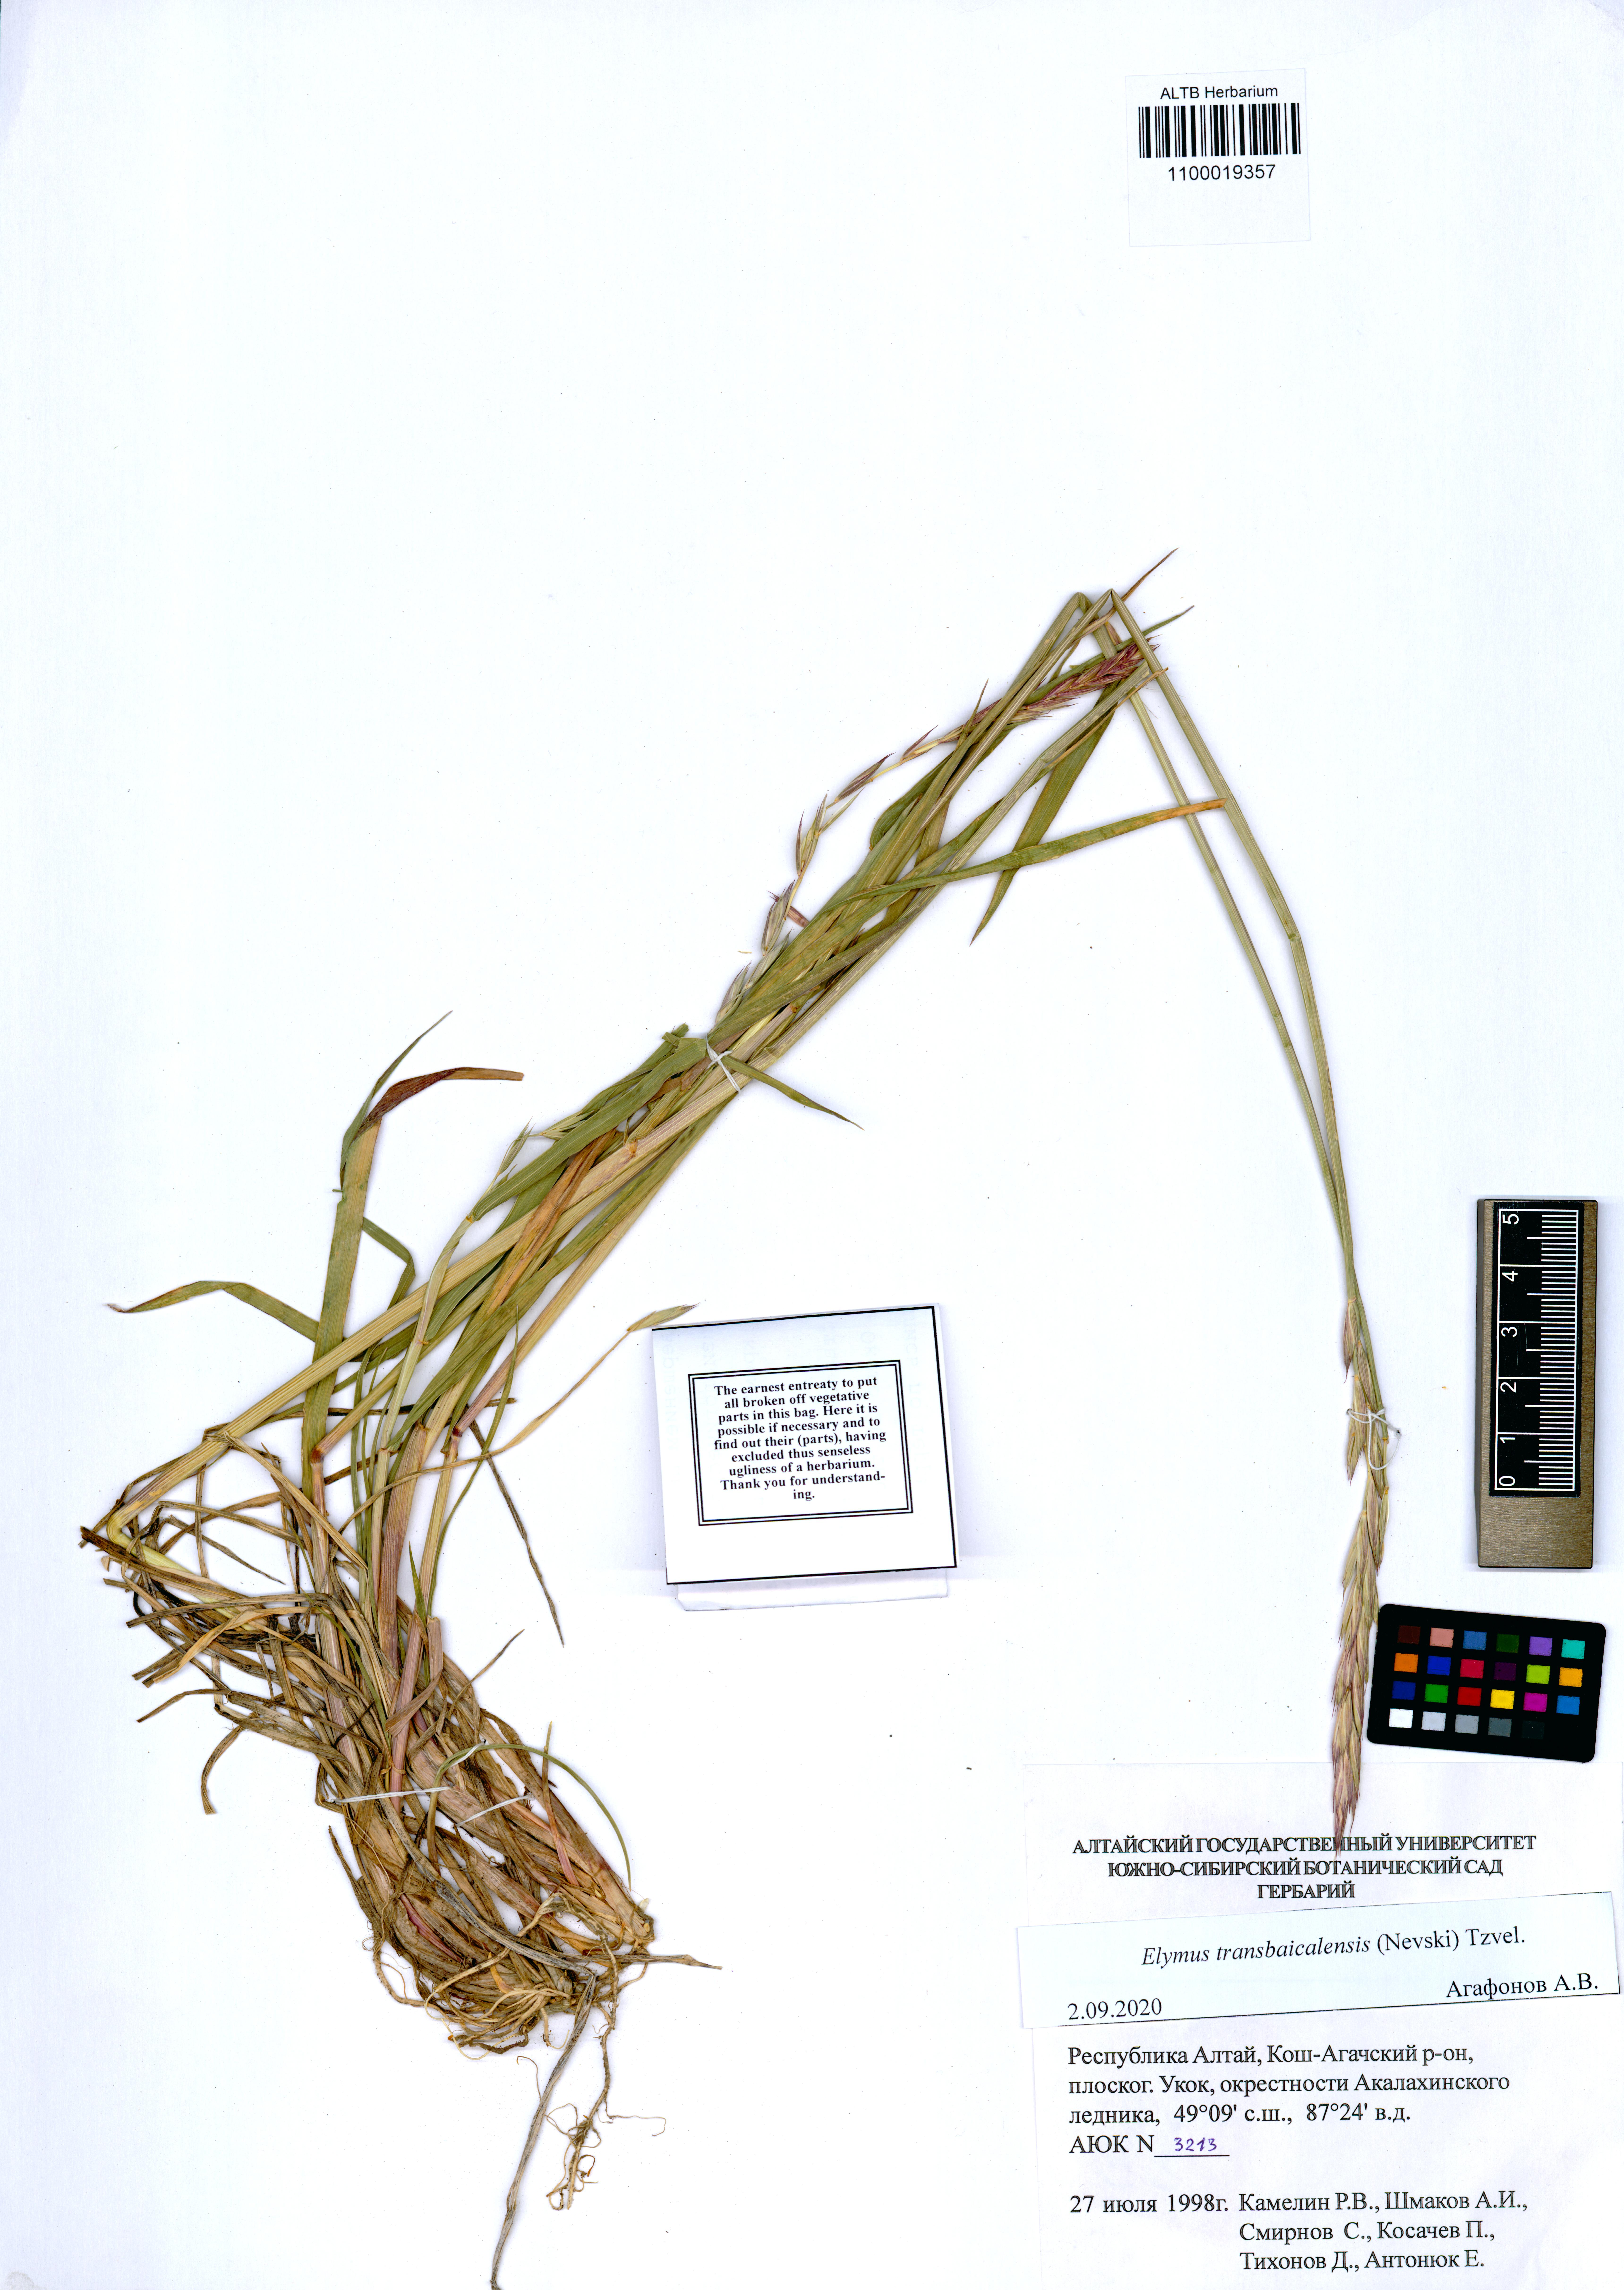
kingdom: Plantae
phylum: Tracheophyta
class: Liliopsida
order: Poales
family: Poaceae
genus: Elymus
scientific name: Elymus mutabilis
